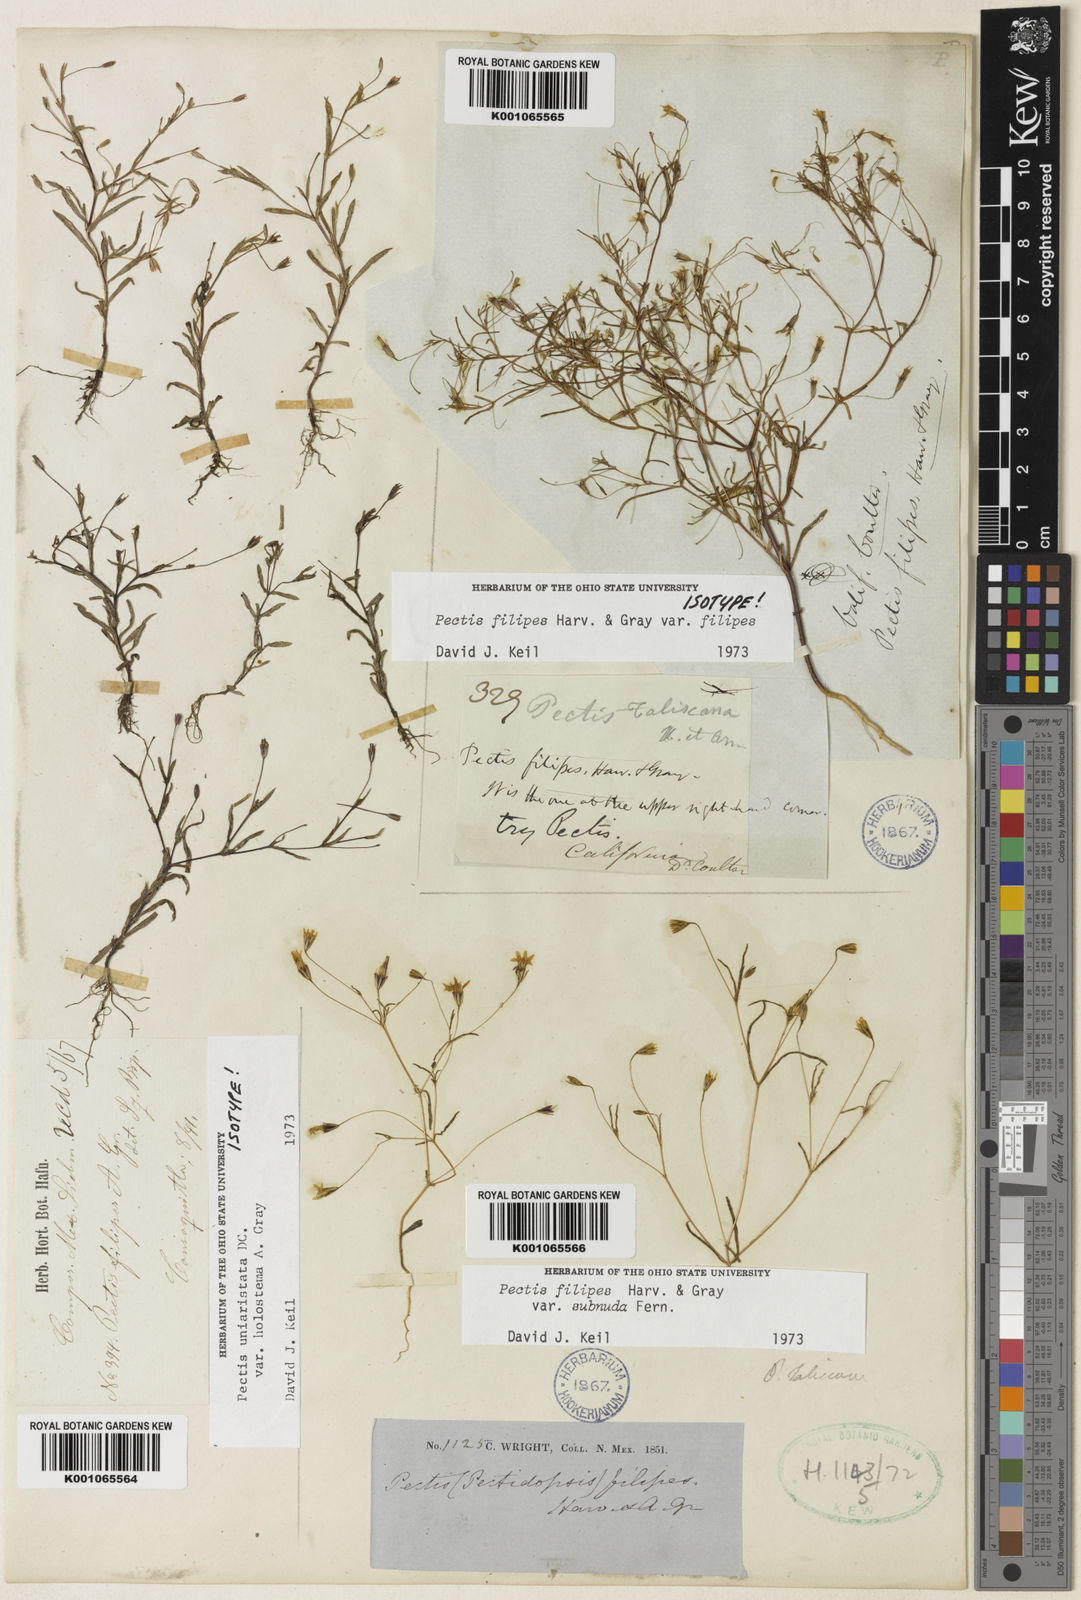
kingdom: Plantae
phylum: Tracheophyta
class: Magnoliopsida
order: Asterales
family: Asteraceae
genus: Pectis
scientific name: Pectis filipes
